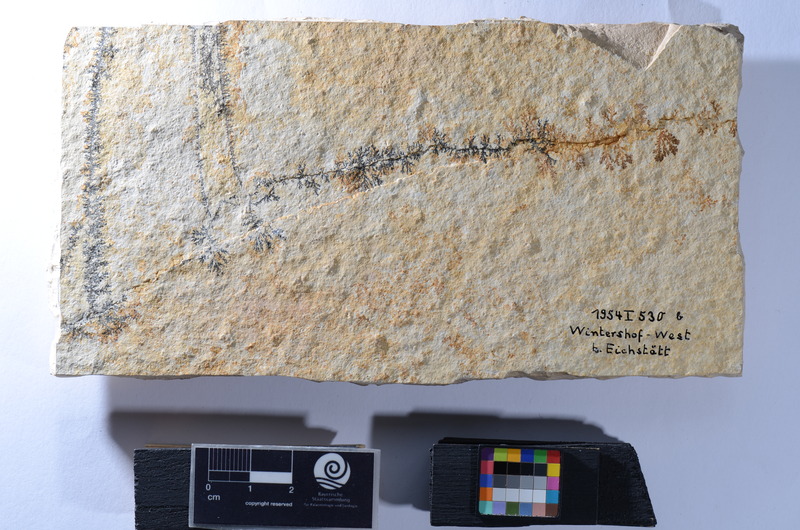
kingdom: Animalia
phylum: Chordata
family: Macrosemiidae
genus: Macrosemius
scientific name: Macrosemius
